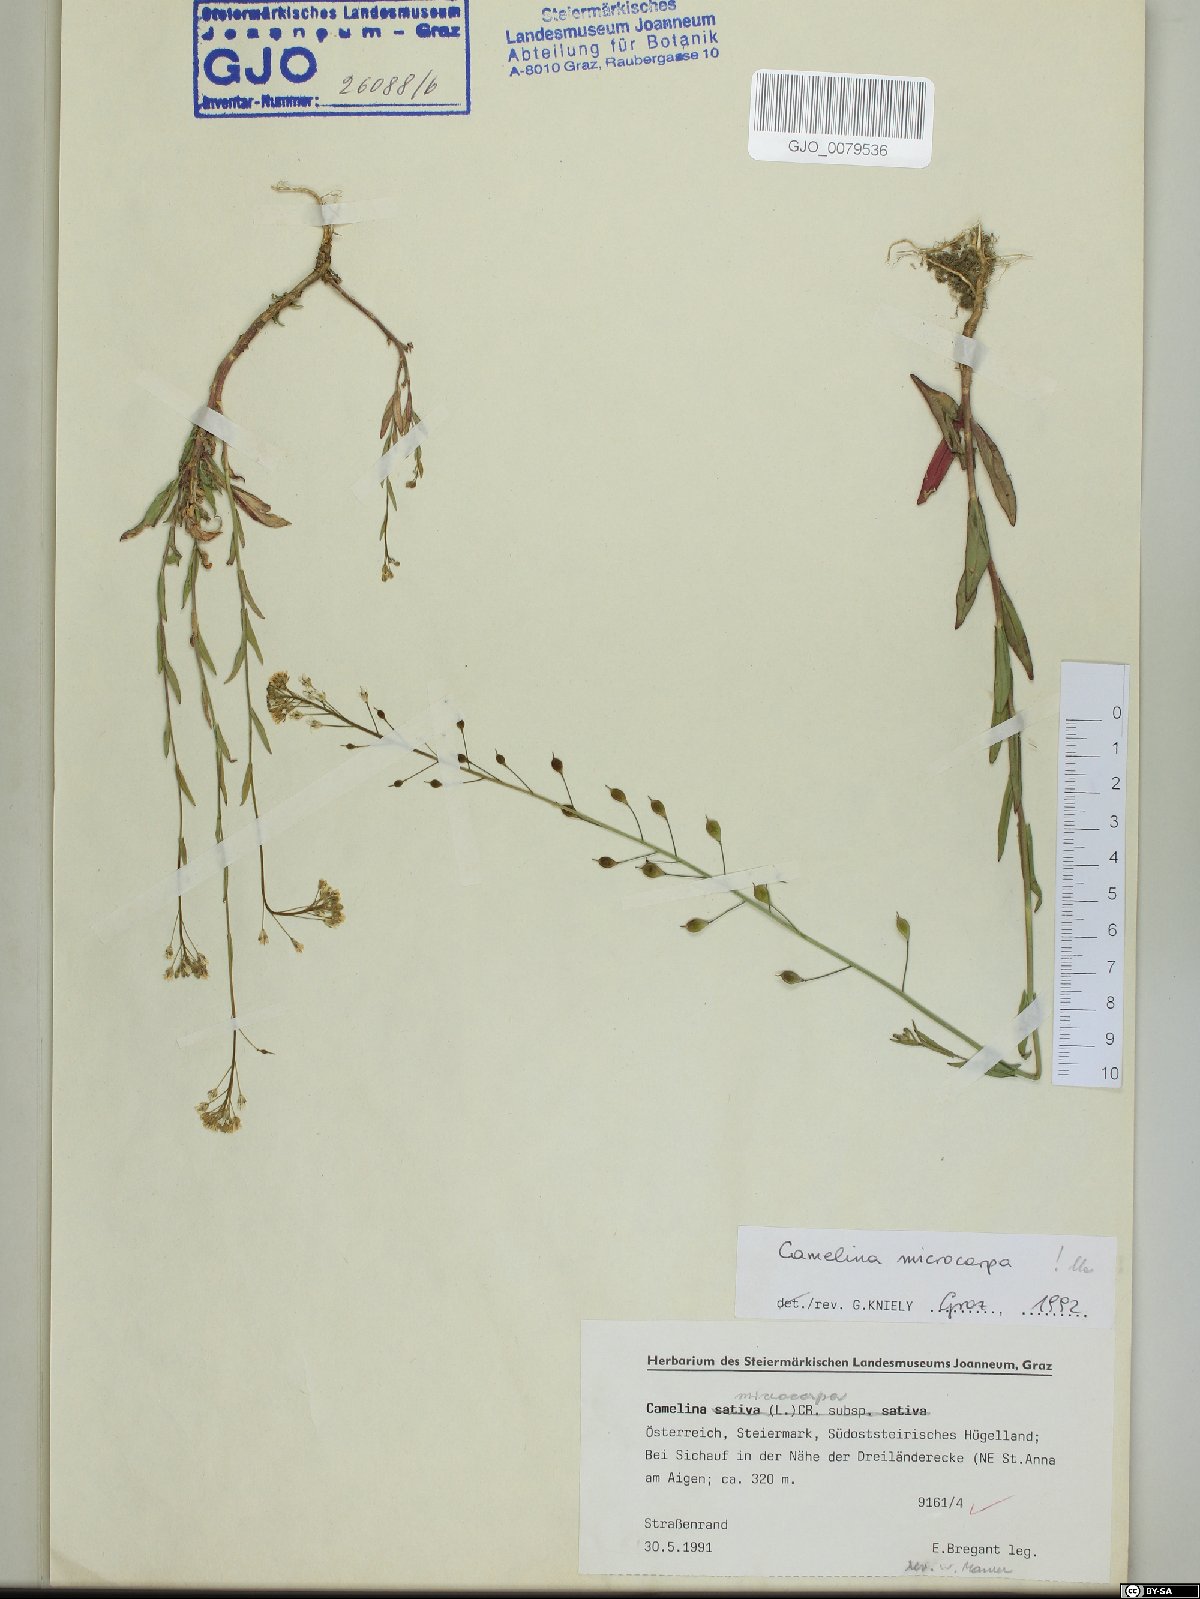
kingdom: Plantae
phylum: Tracheophyta
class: Magnoliopsida
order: Brassicales
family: Brassicaceae
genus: Camelina
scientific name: Camelina microcarpa
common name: Lesser gold-of-pleasure
